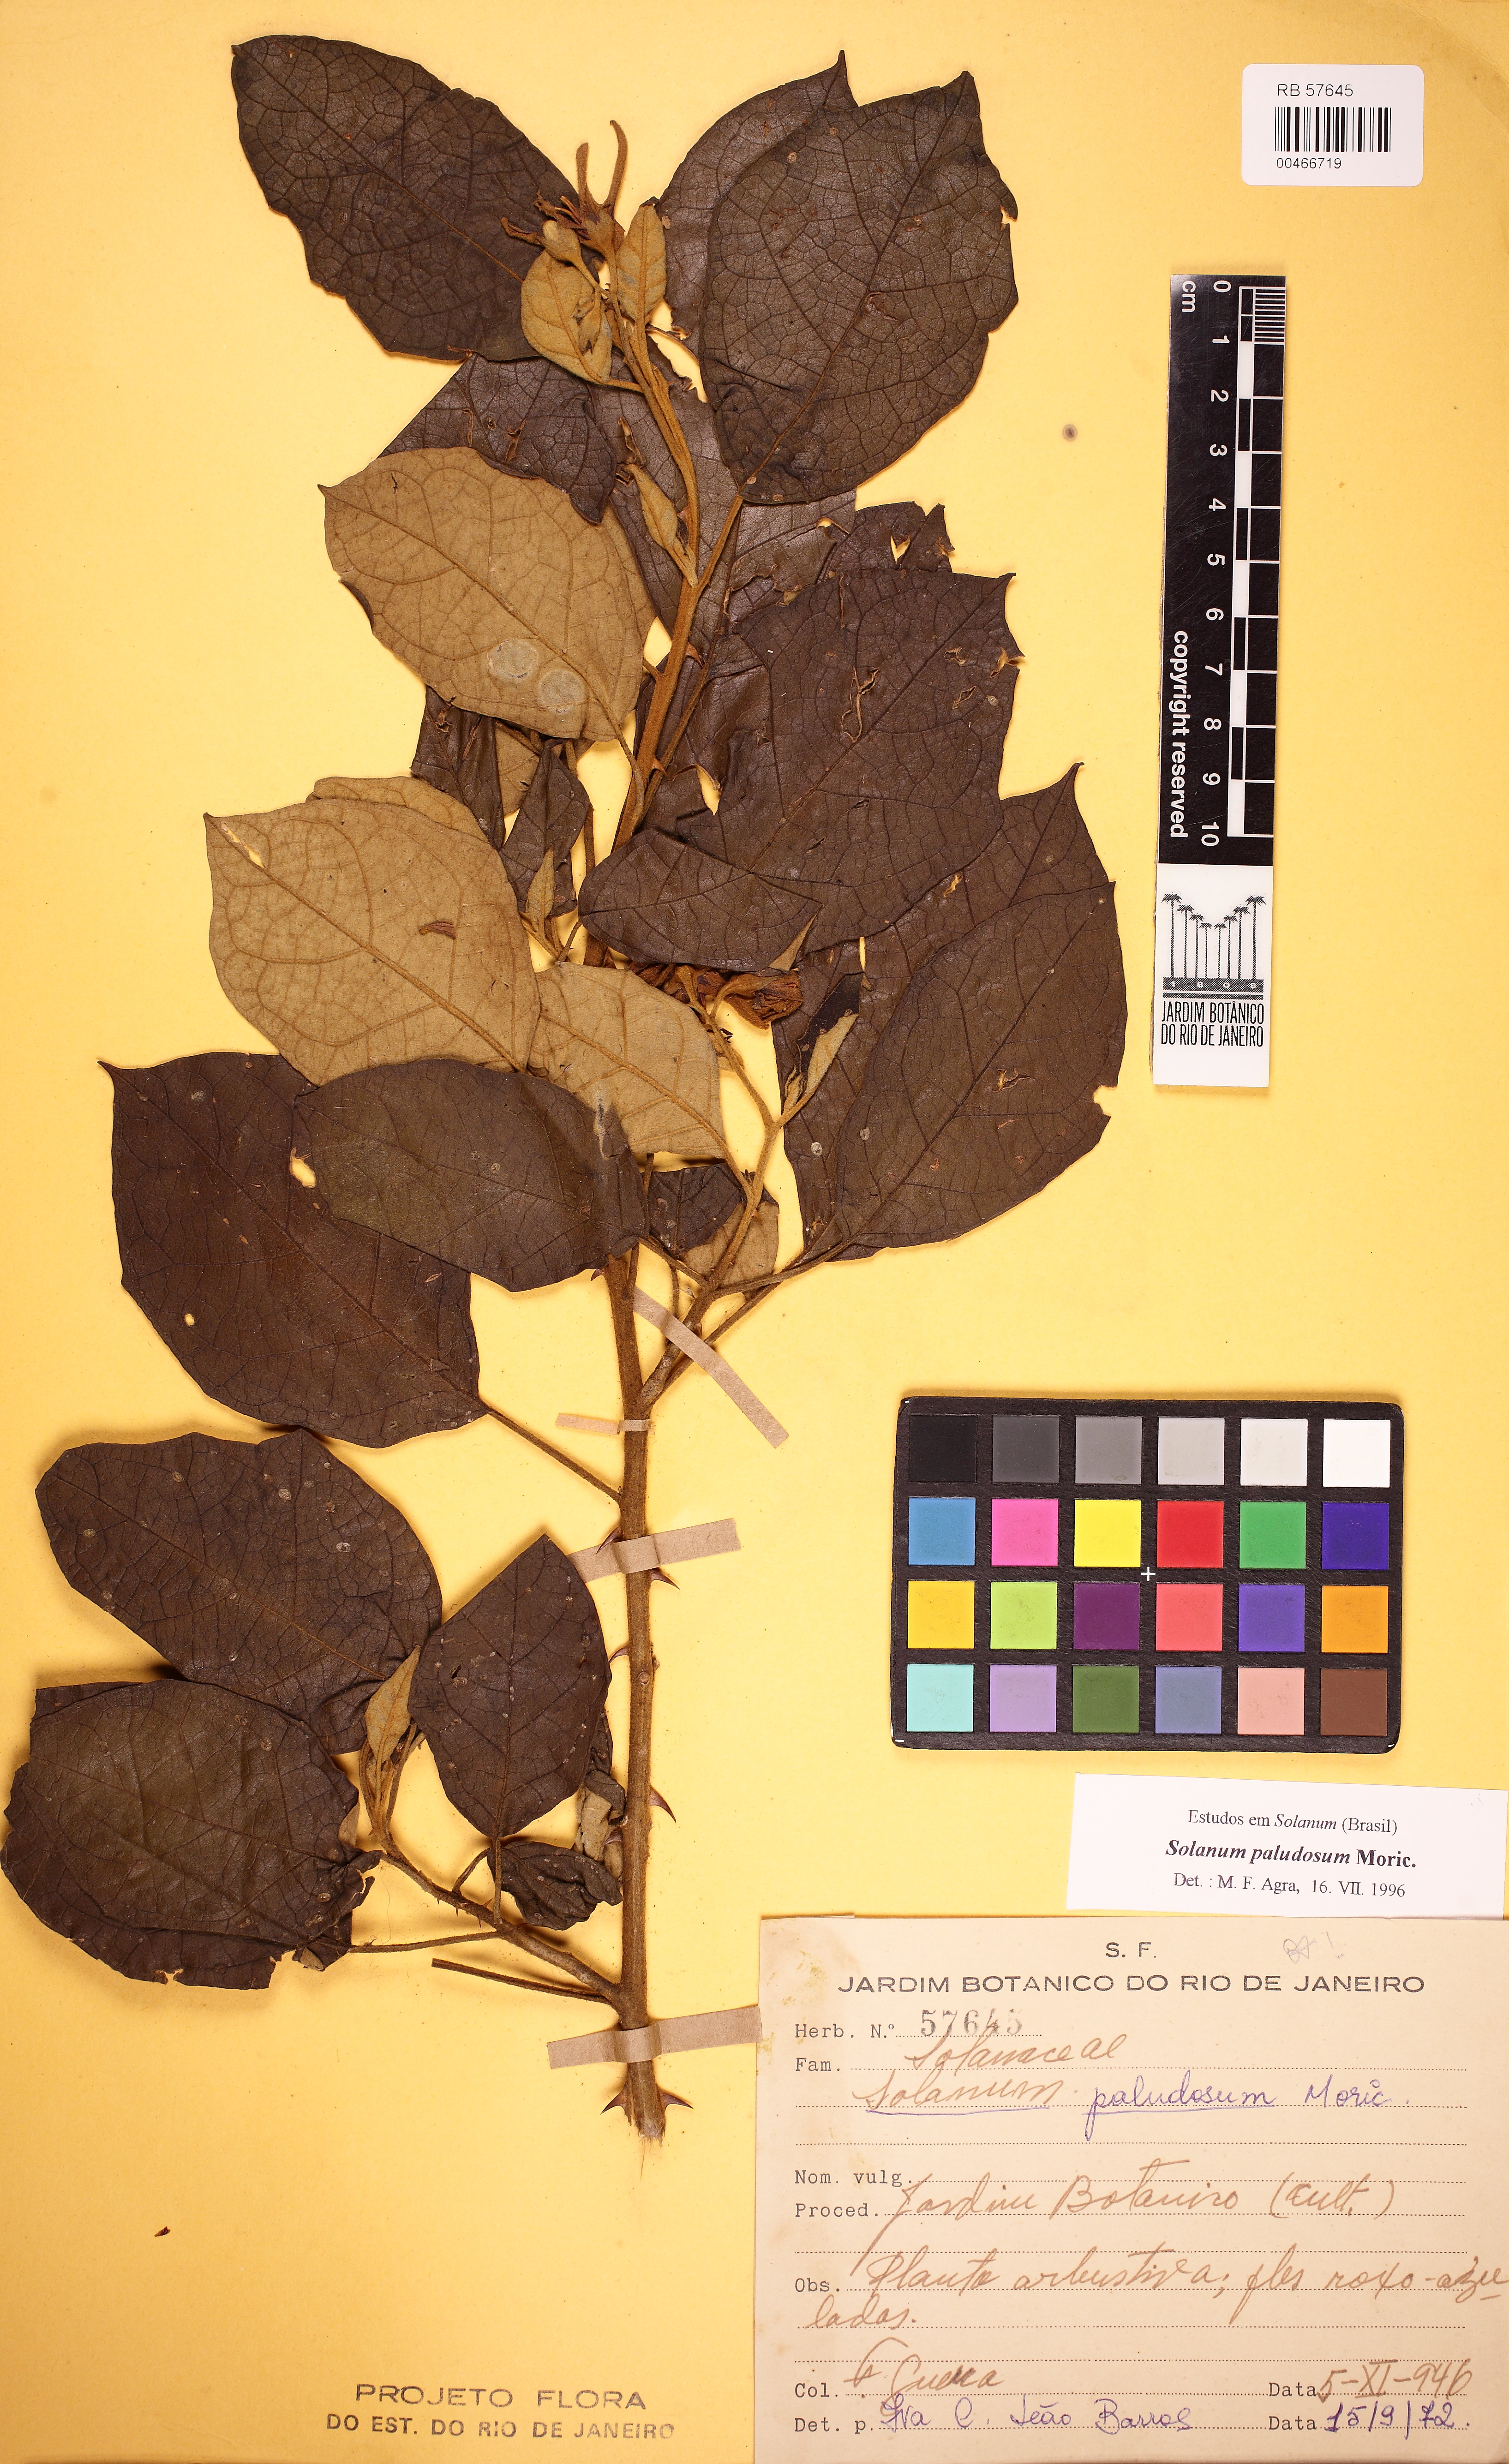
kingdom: Plantae
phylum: Tracheophyta
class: Magnoliopsida
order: Solanales
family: Solanaceae
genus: Solanum
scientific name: Solanum paludosum
